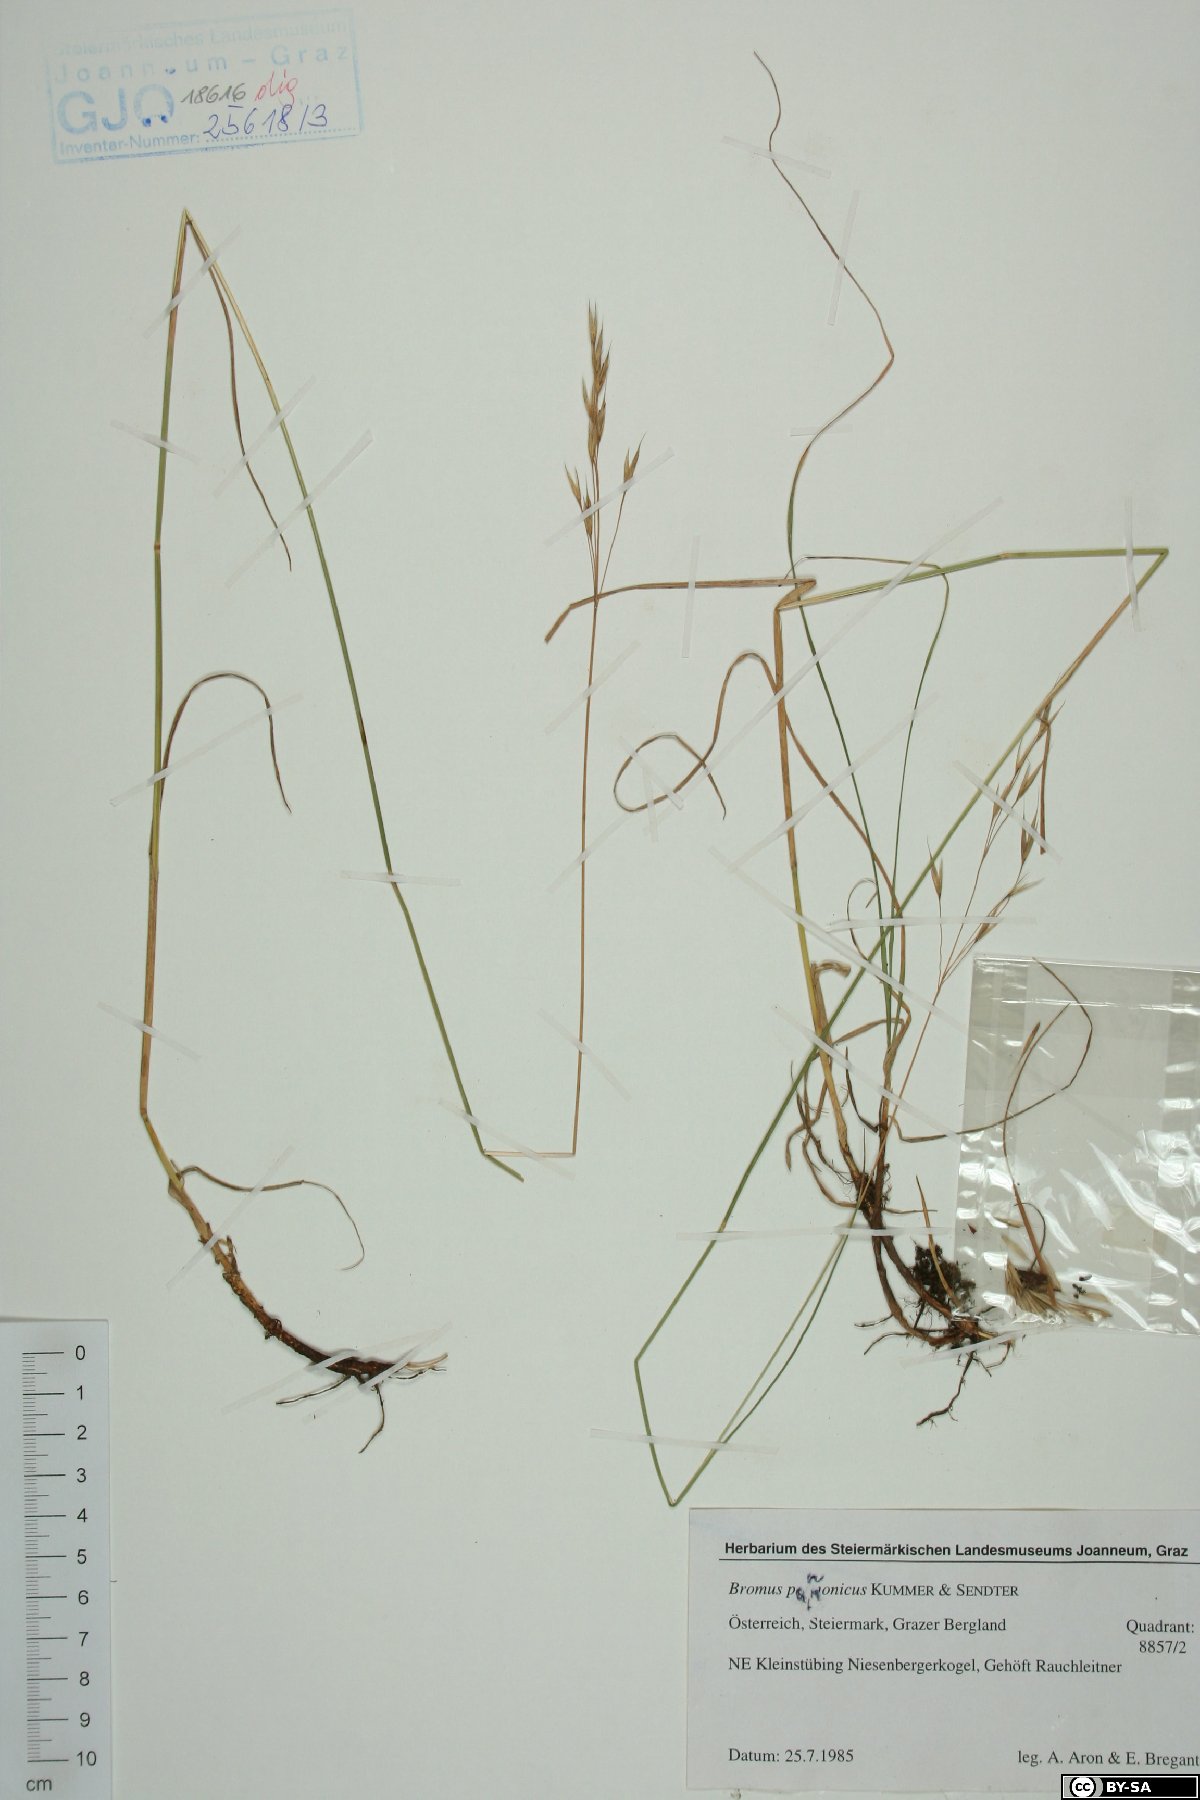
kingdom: Plantae
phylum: Tracheophyta
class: Liliopsida
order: Poales
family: Poaceae
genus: Bromus
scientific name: Bromus pannonicus
